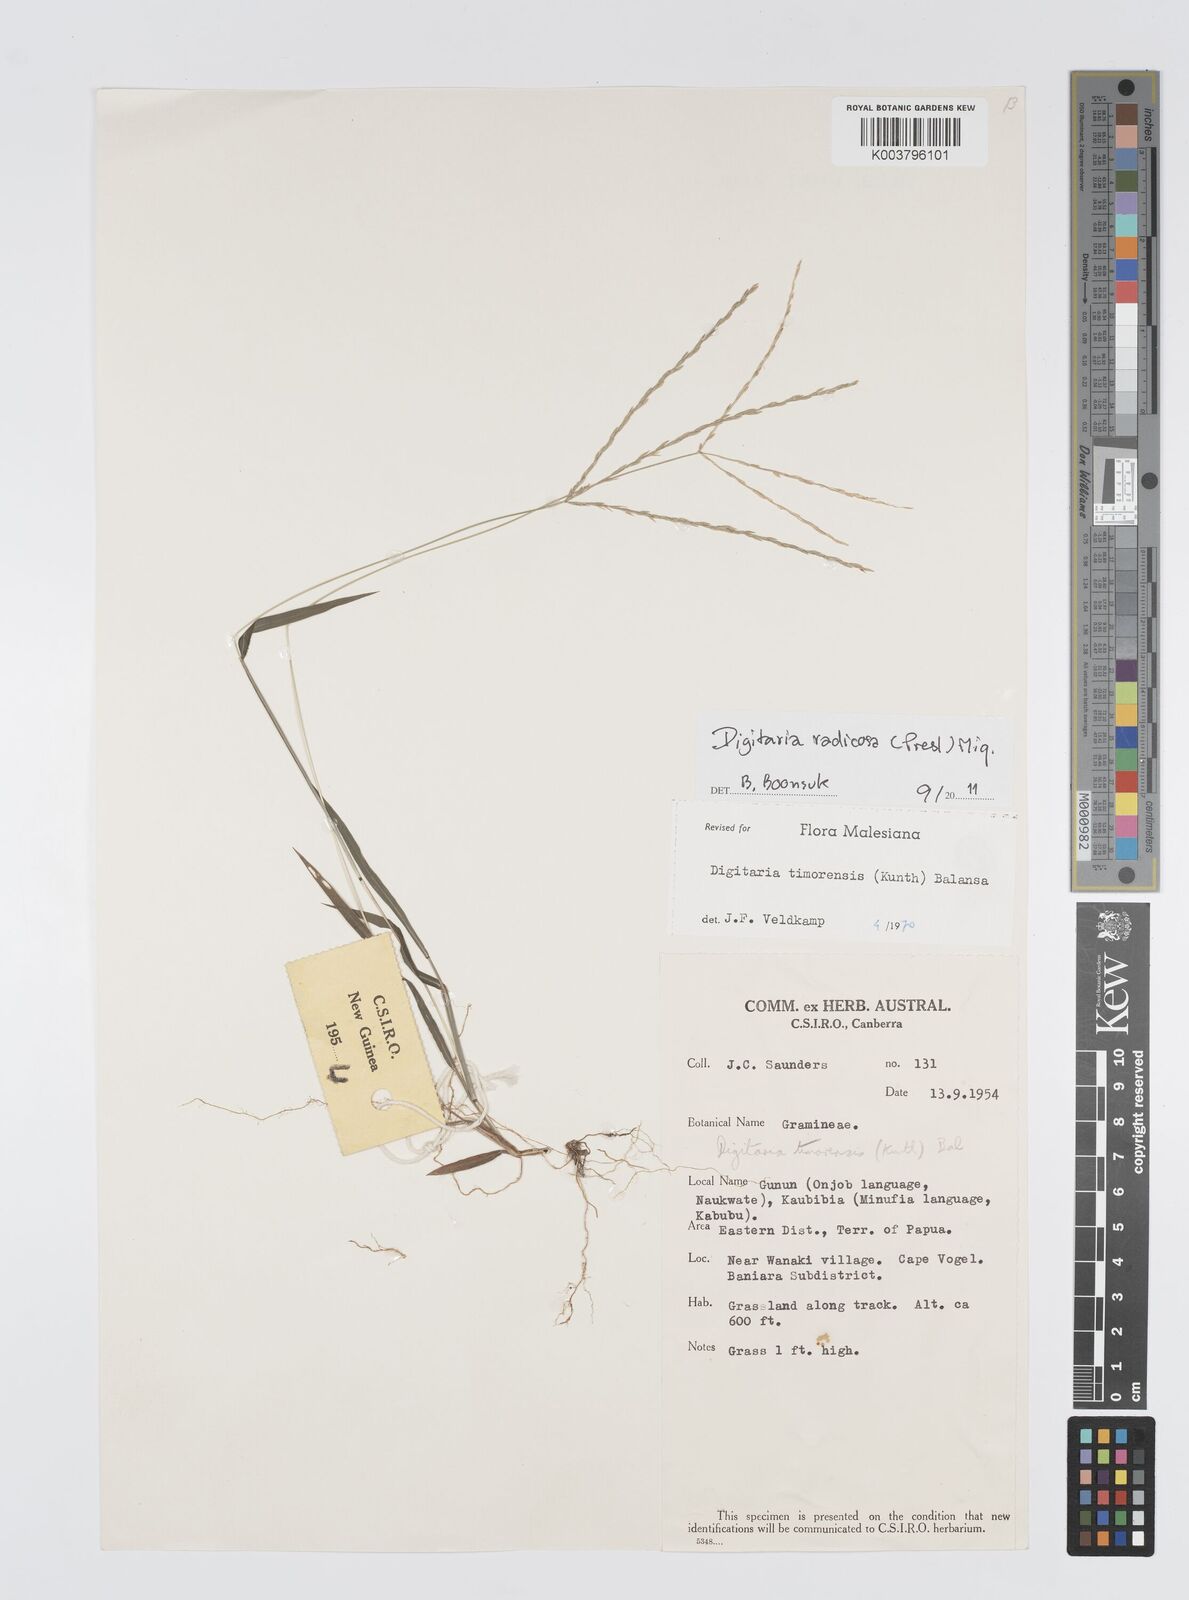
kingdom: Plantae
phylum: Tracheophyta
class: Liliopsida
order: Poales
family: Poaceae
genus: Digitaria
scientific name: Digitaria radicosa
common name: Trailing crabgrass
